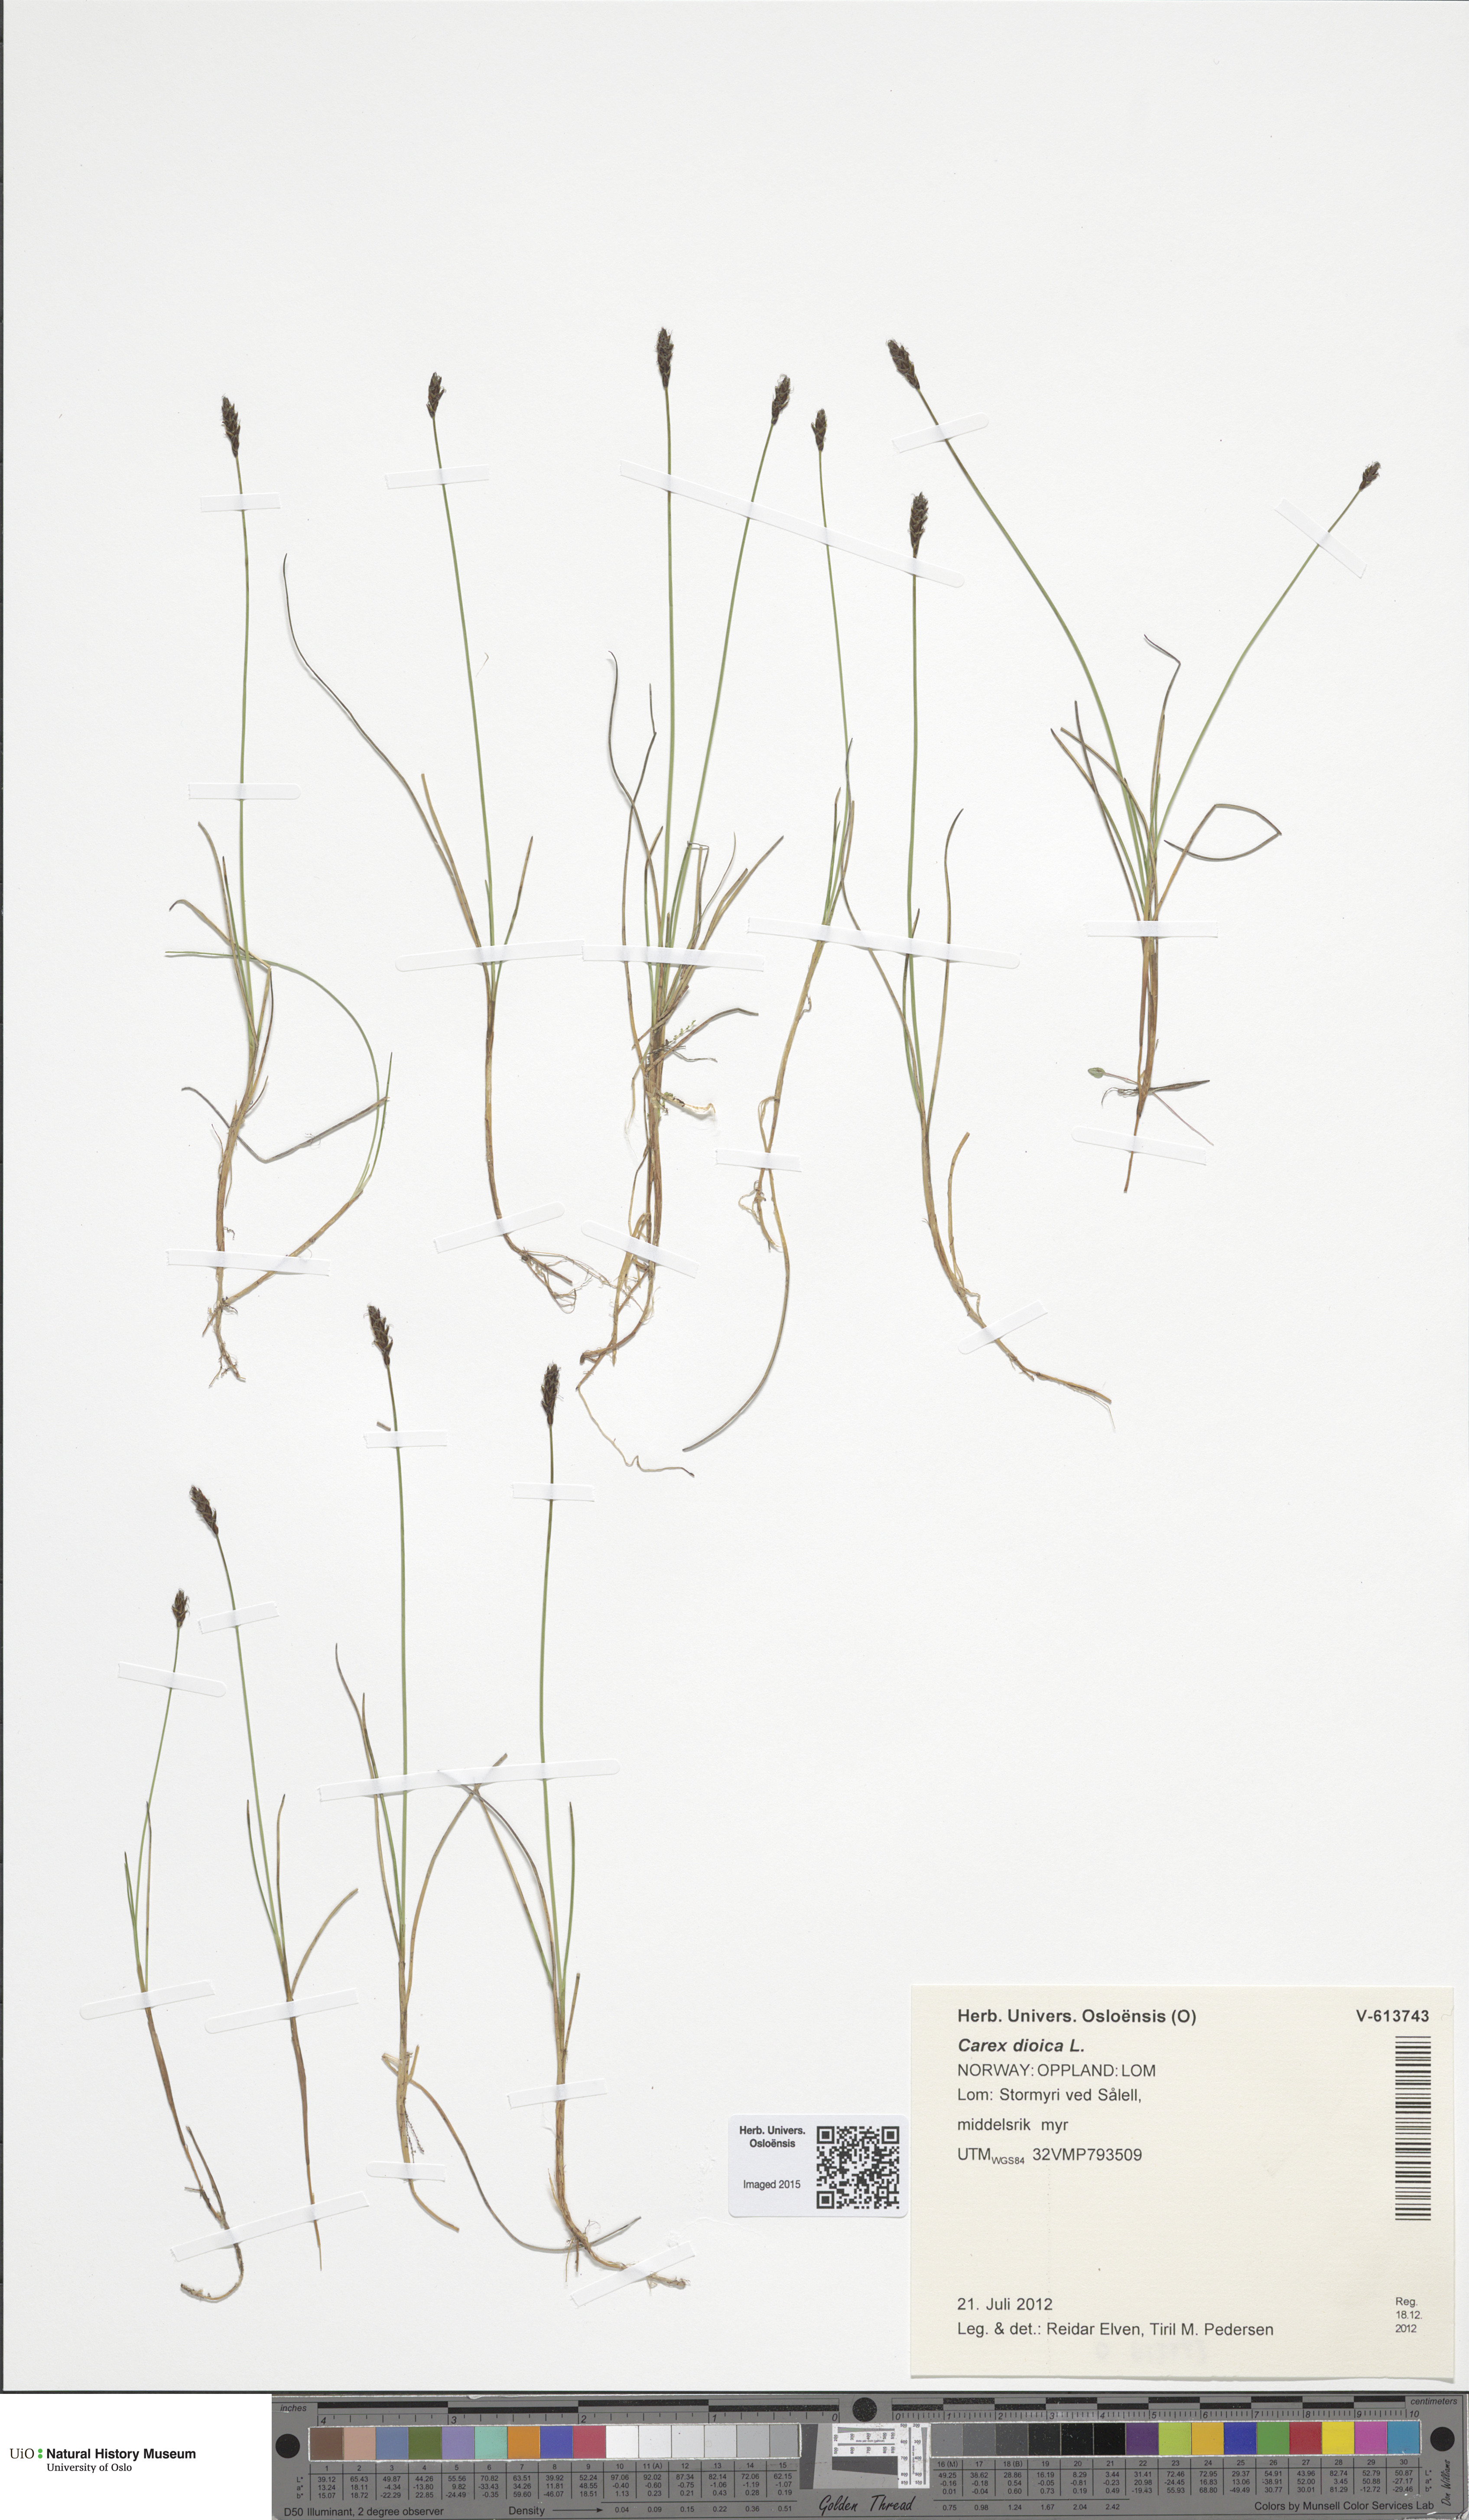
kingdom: Plantae
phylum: Tracheophyta
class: Liliopsida
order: Poales
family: Cyperaceae
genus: Carex
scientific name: Carex dioica
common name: Dioecious sedge
